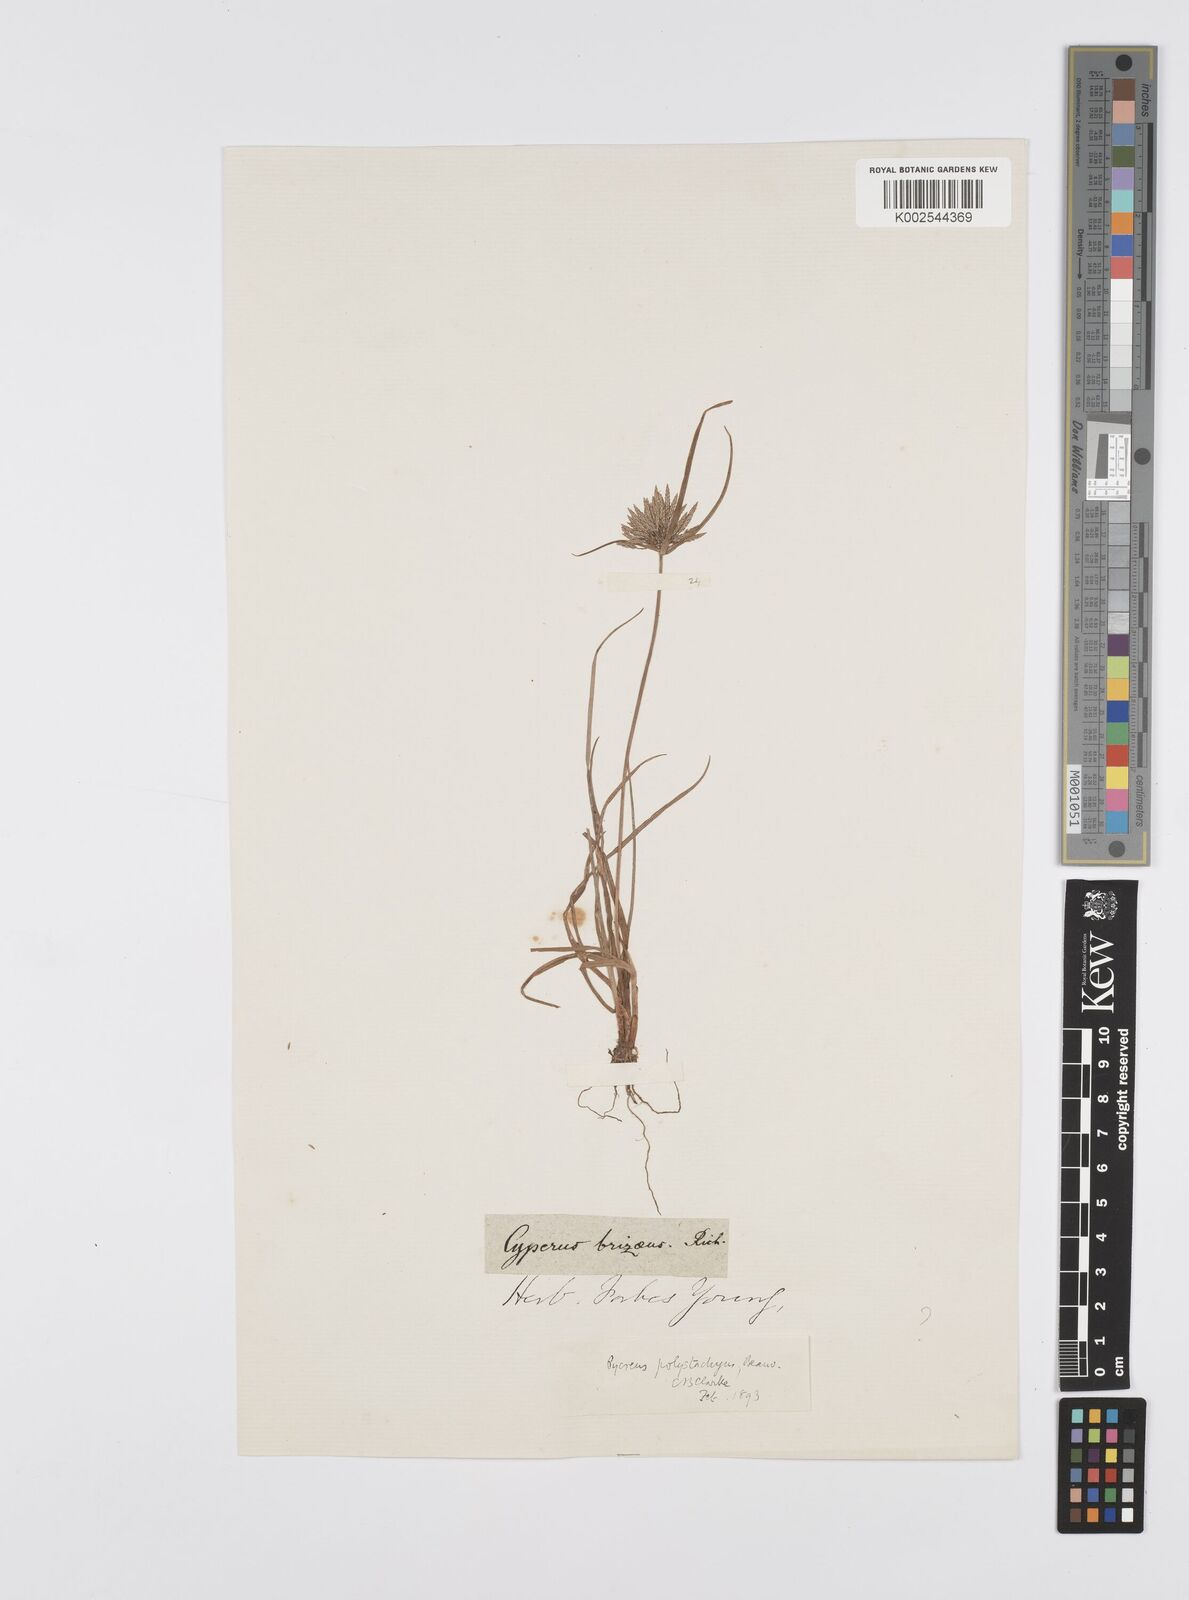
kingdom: Plantae
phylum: Tracheophyta
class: Liliopsida
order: Poales
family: Cyperaceae
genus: Cyperus
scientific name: Cyperus polystachyos
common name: Bunchy flat sedge
